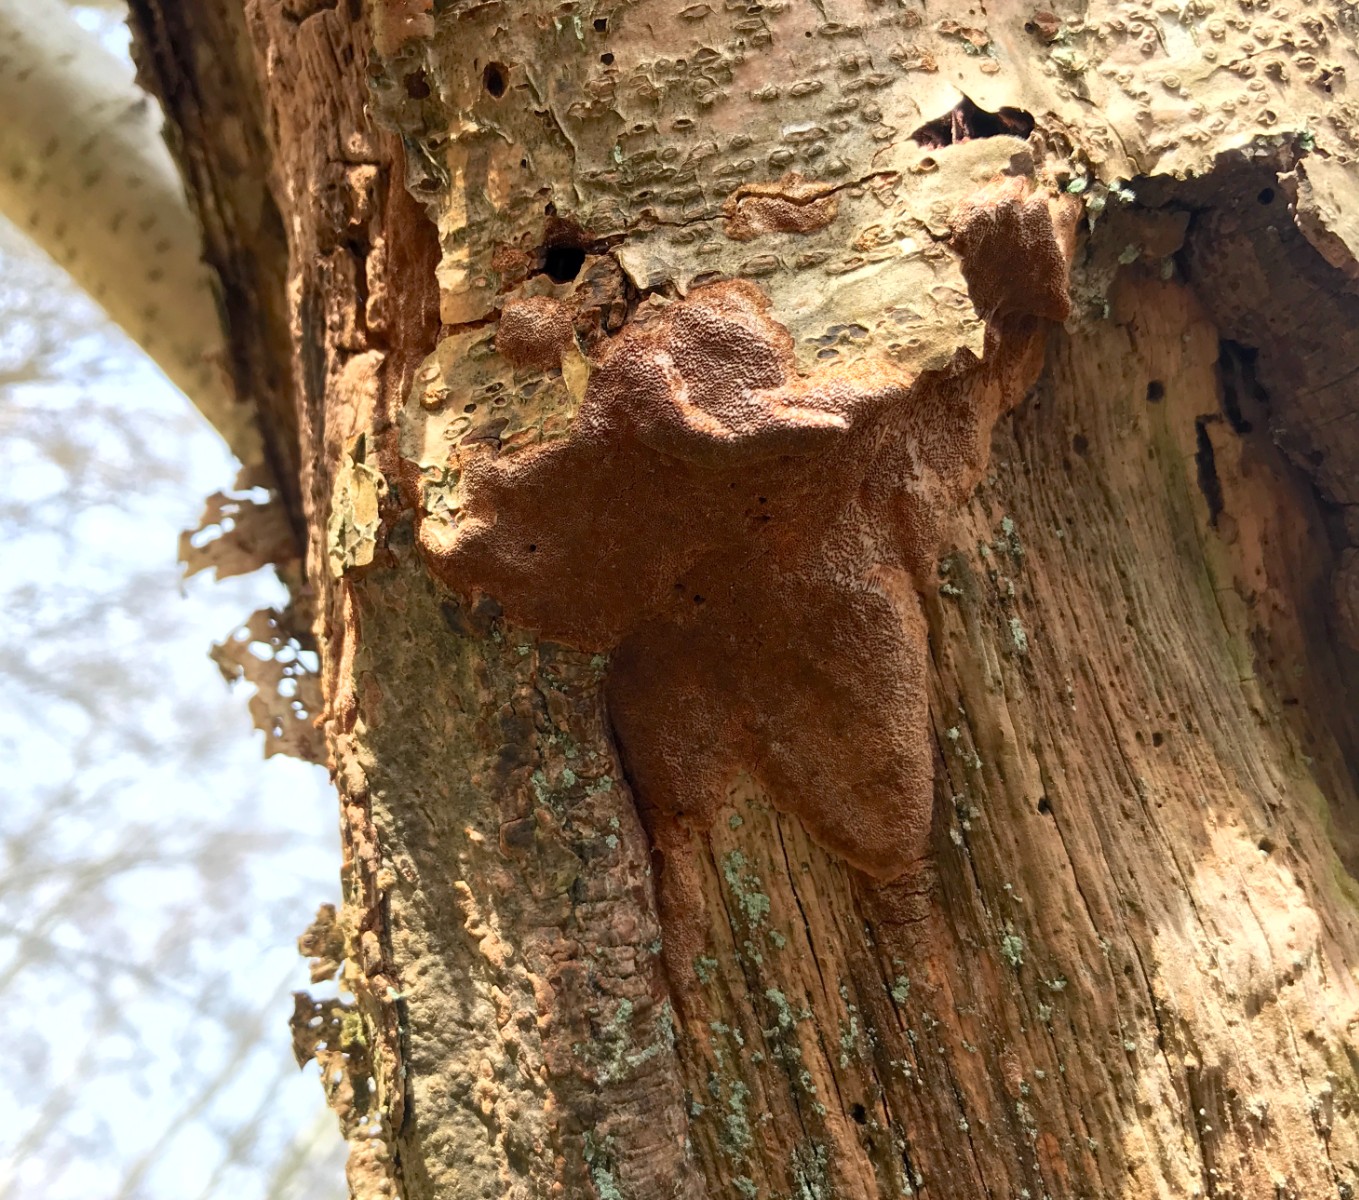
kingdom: Fungi
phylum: Basidiomycota
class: Agaricomycetes
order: Hymenochaetales
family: Hymenochaetaceae
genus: Fuscoporia
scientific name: Fuscoporia
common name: Ildporesvamp
